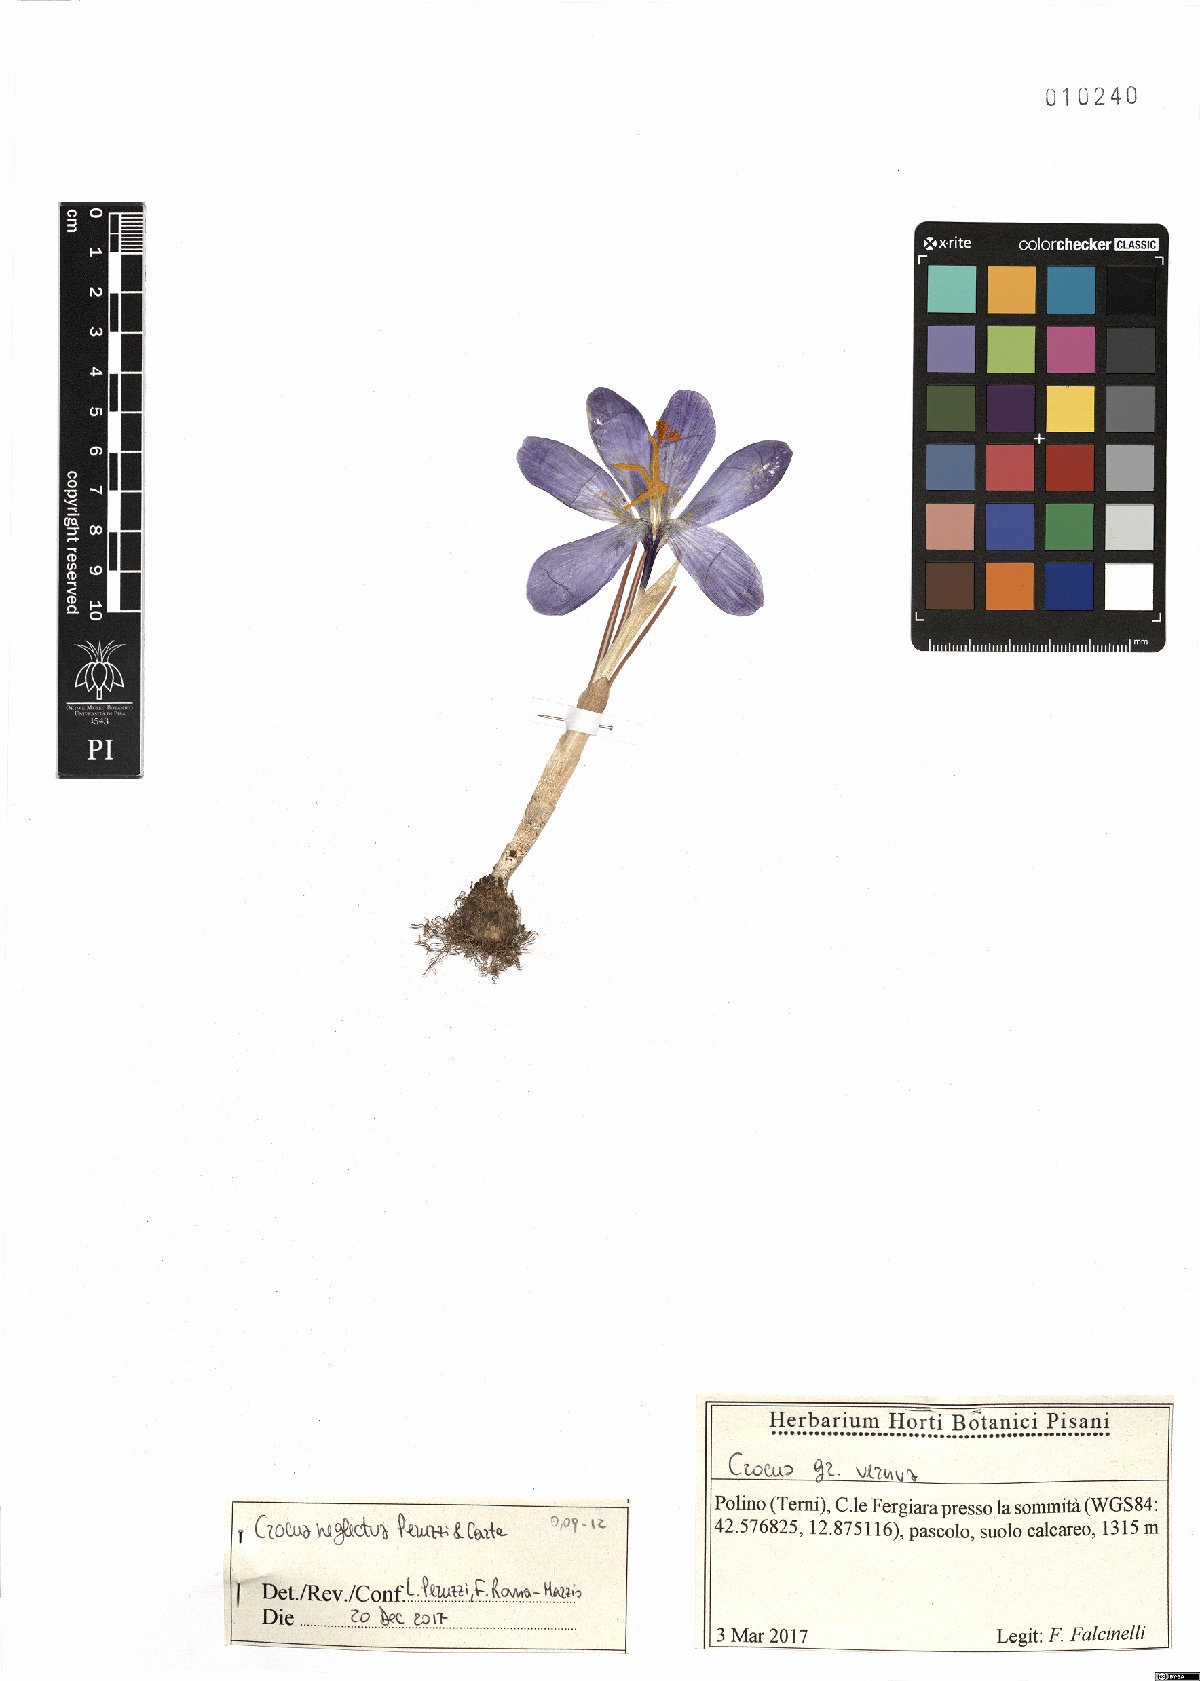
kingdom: Plantae
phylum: Tracheophyta
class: Liliopsida
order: Asparagales
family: Iridaceae
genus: Crocus
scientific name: Crocus neglectus
